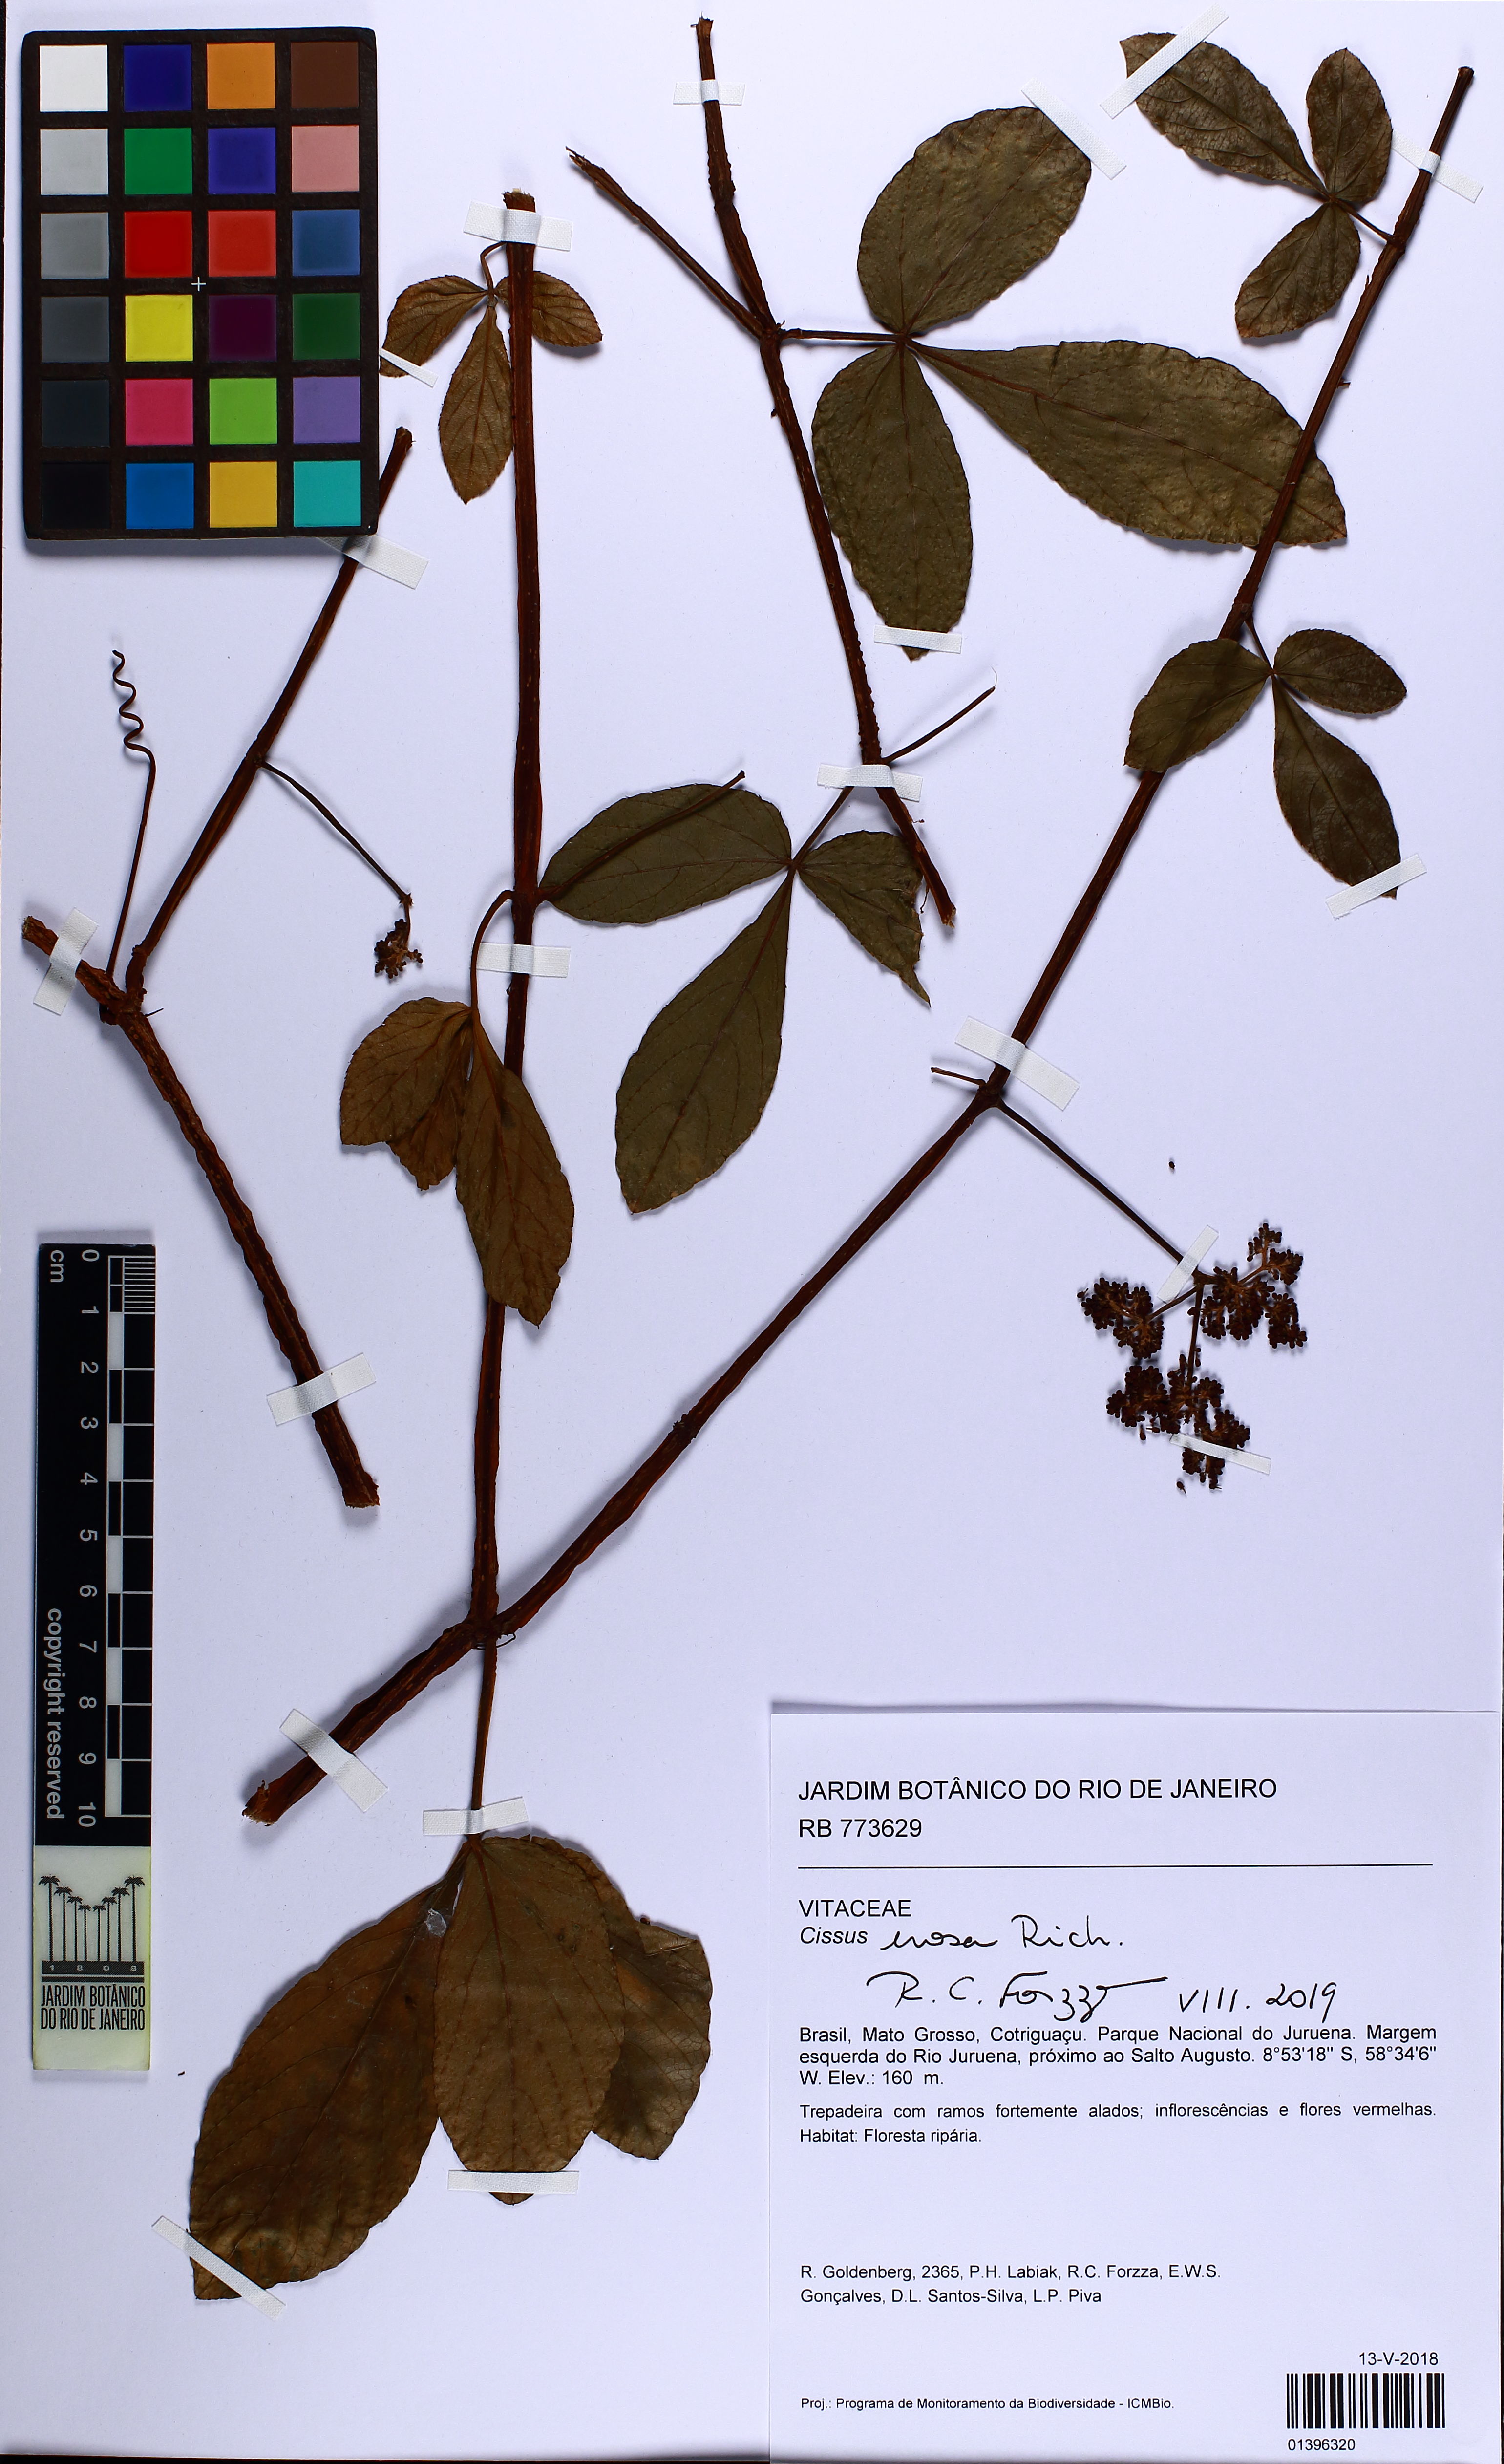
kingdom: Plantae
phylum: Tracheophyta
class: Magnoliopsida
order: Vitales
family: Vitaceae
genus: Cissus
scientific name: Cissus erosa
